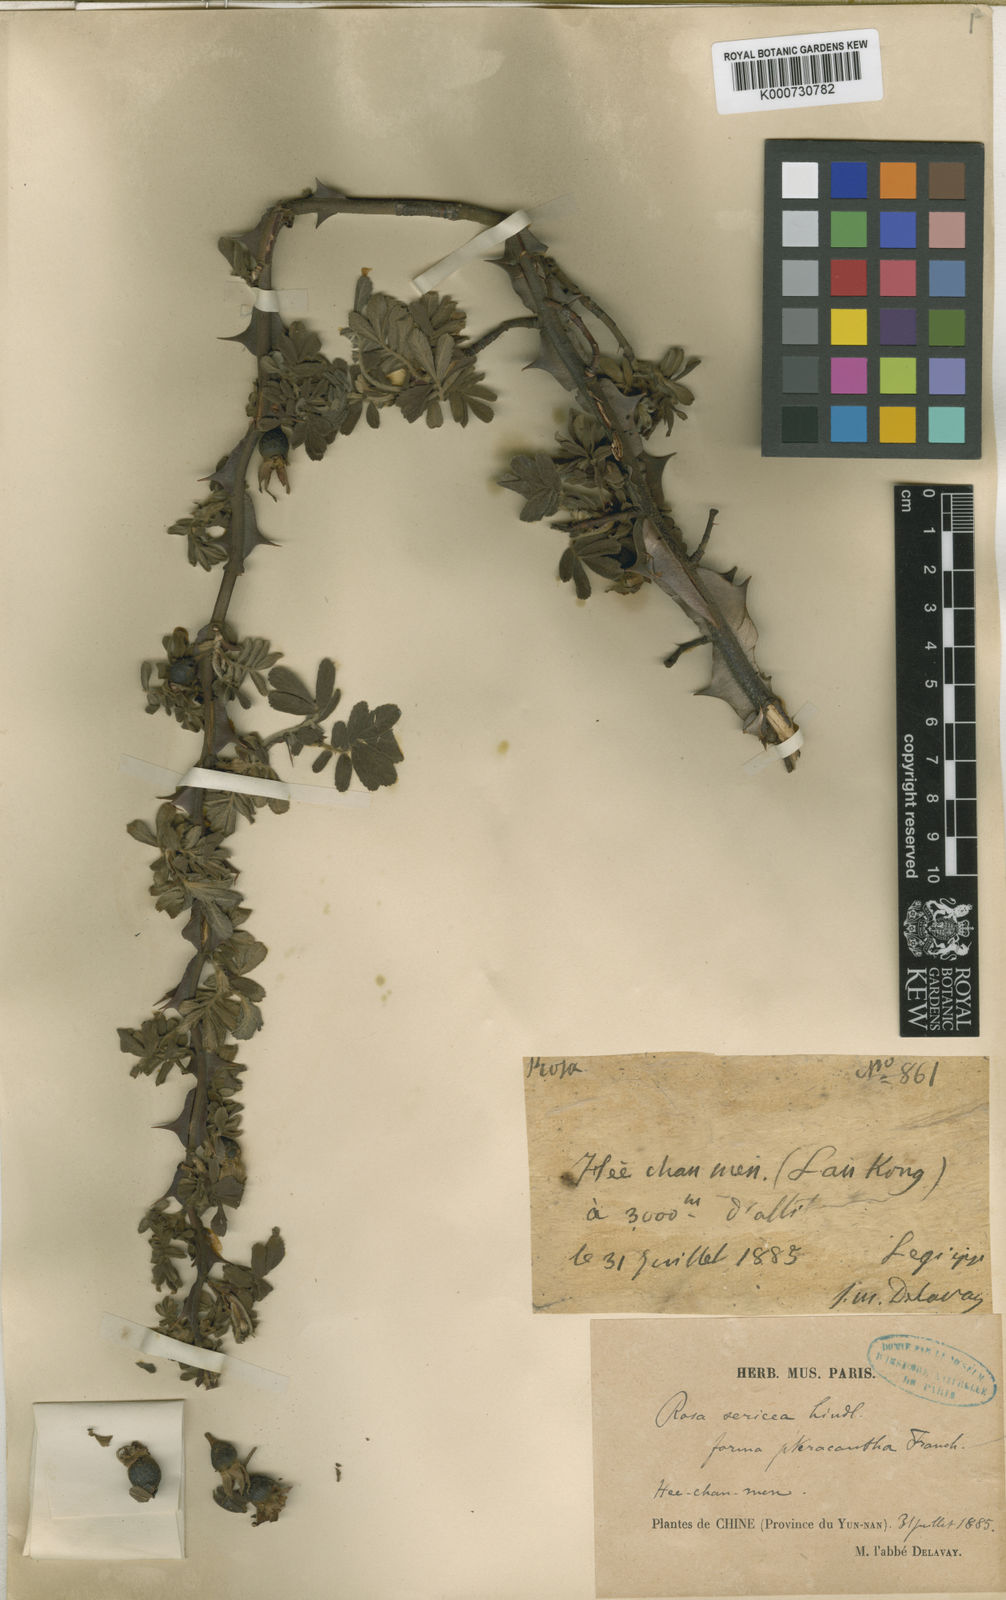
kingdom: Plantae
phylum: Tracheophyta
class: Magnoliopsida
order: Rosales
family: Rosaceae
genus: Rosa
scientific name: Rosa sericea
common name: Silky rose
